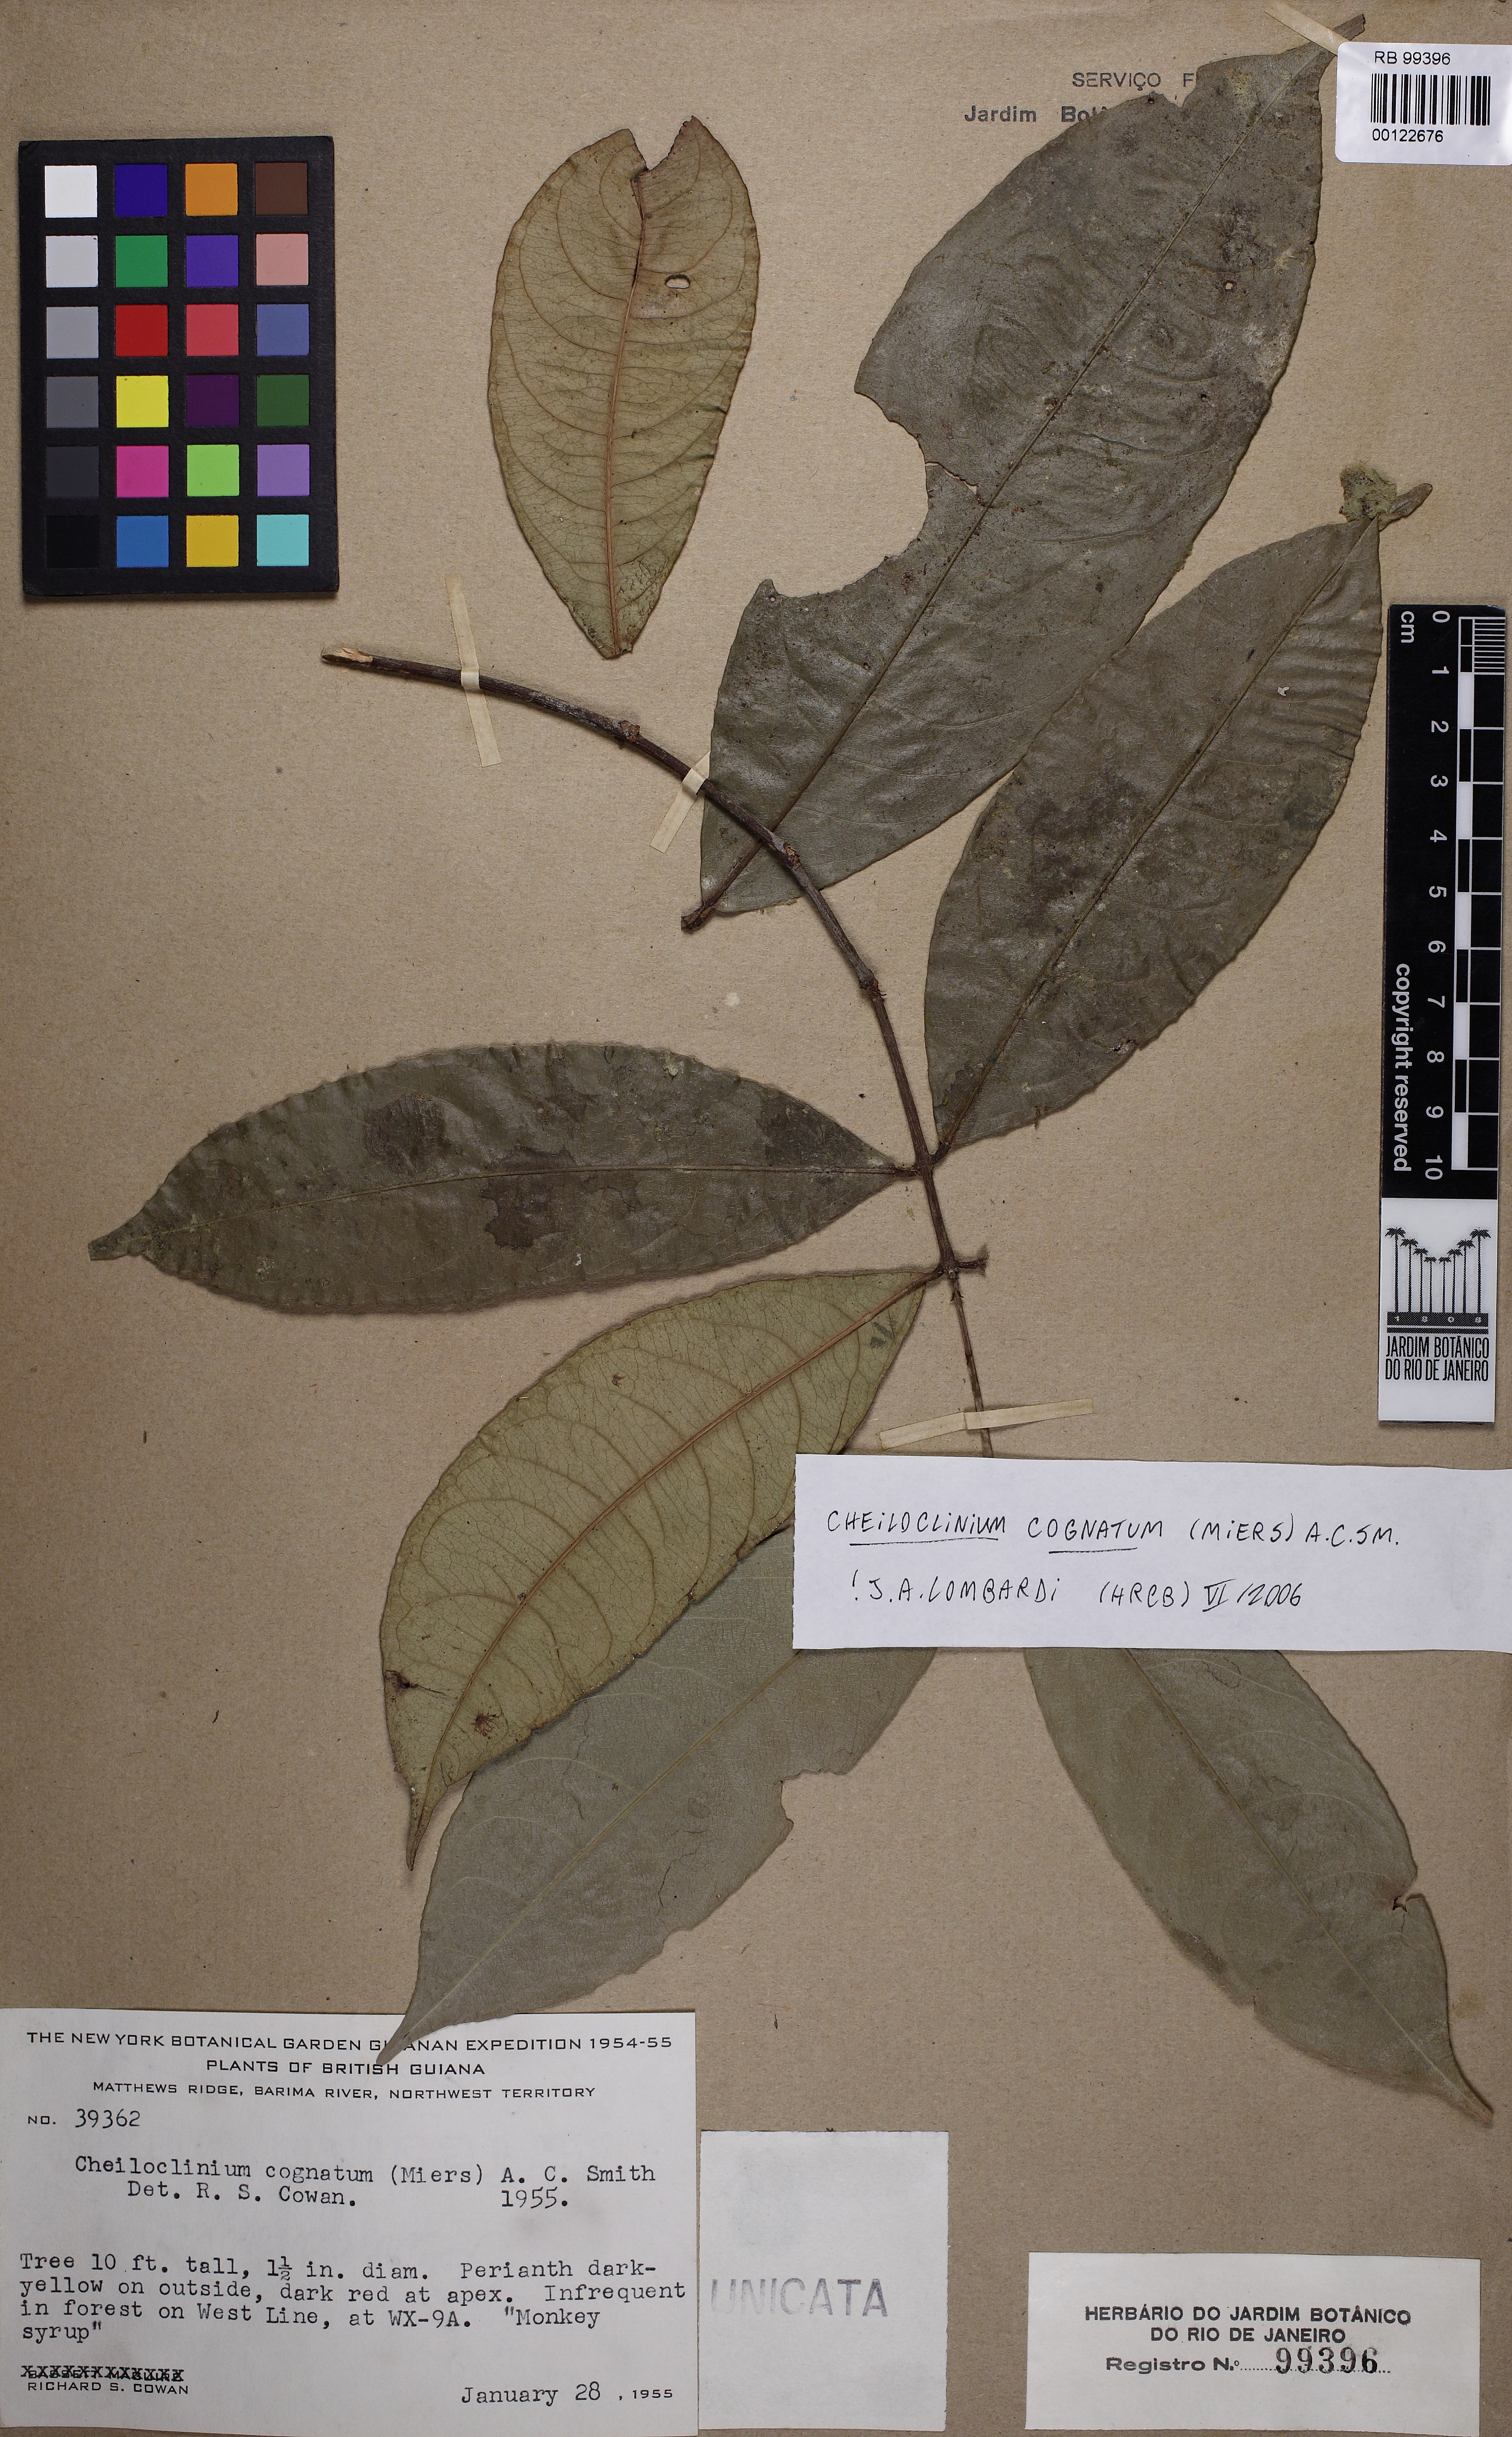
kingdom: Plantae
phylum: Tracheophyta
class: Magnoliopsida
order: Celastrales
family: Celastraceae
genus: Cheiloclinium
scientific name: Cheiloclinium cognatum
